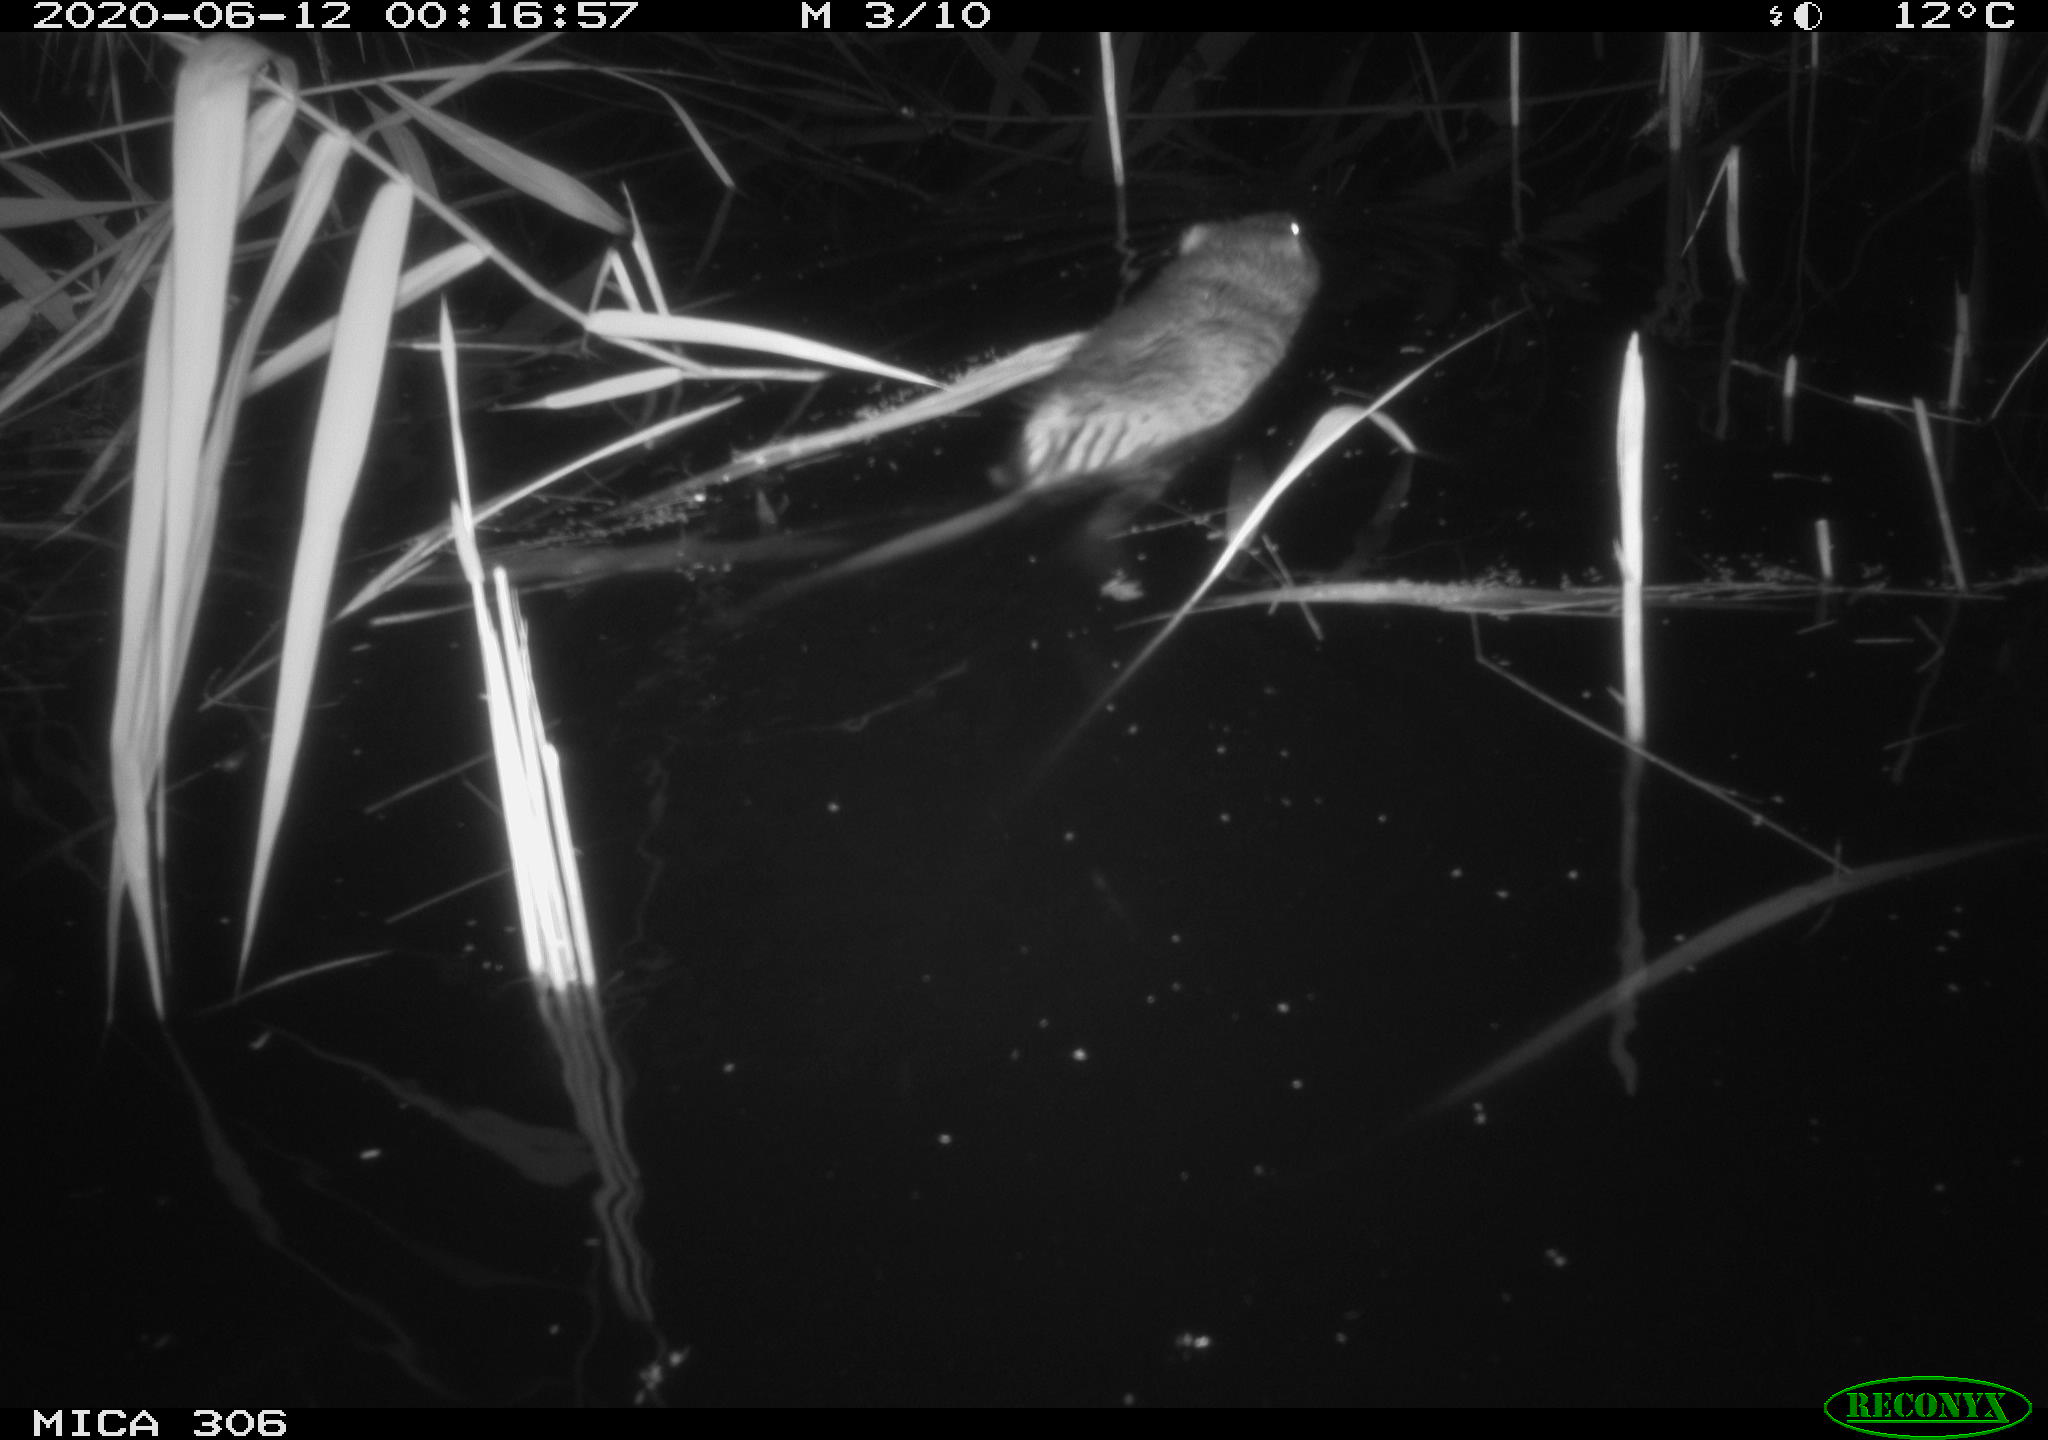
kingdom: Animalia
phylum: Chordata
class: Mammalia
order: Rodentia
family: Muridae
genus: Rattus
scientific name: Rattus norvegicus
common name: Brown rat
